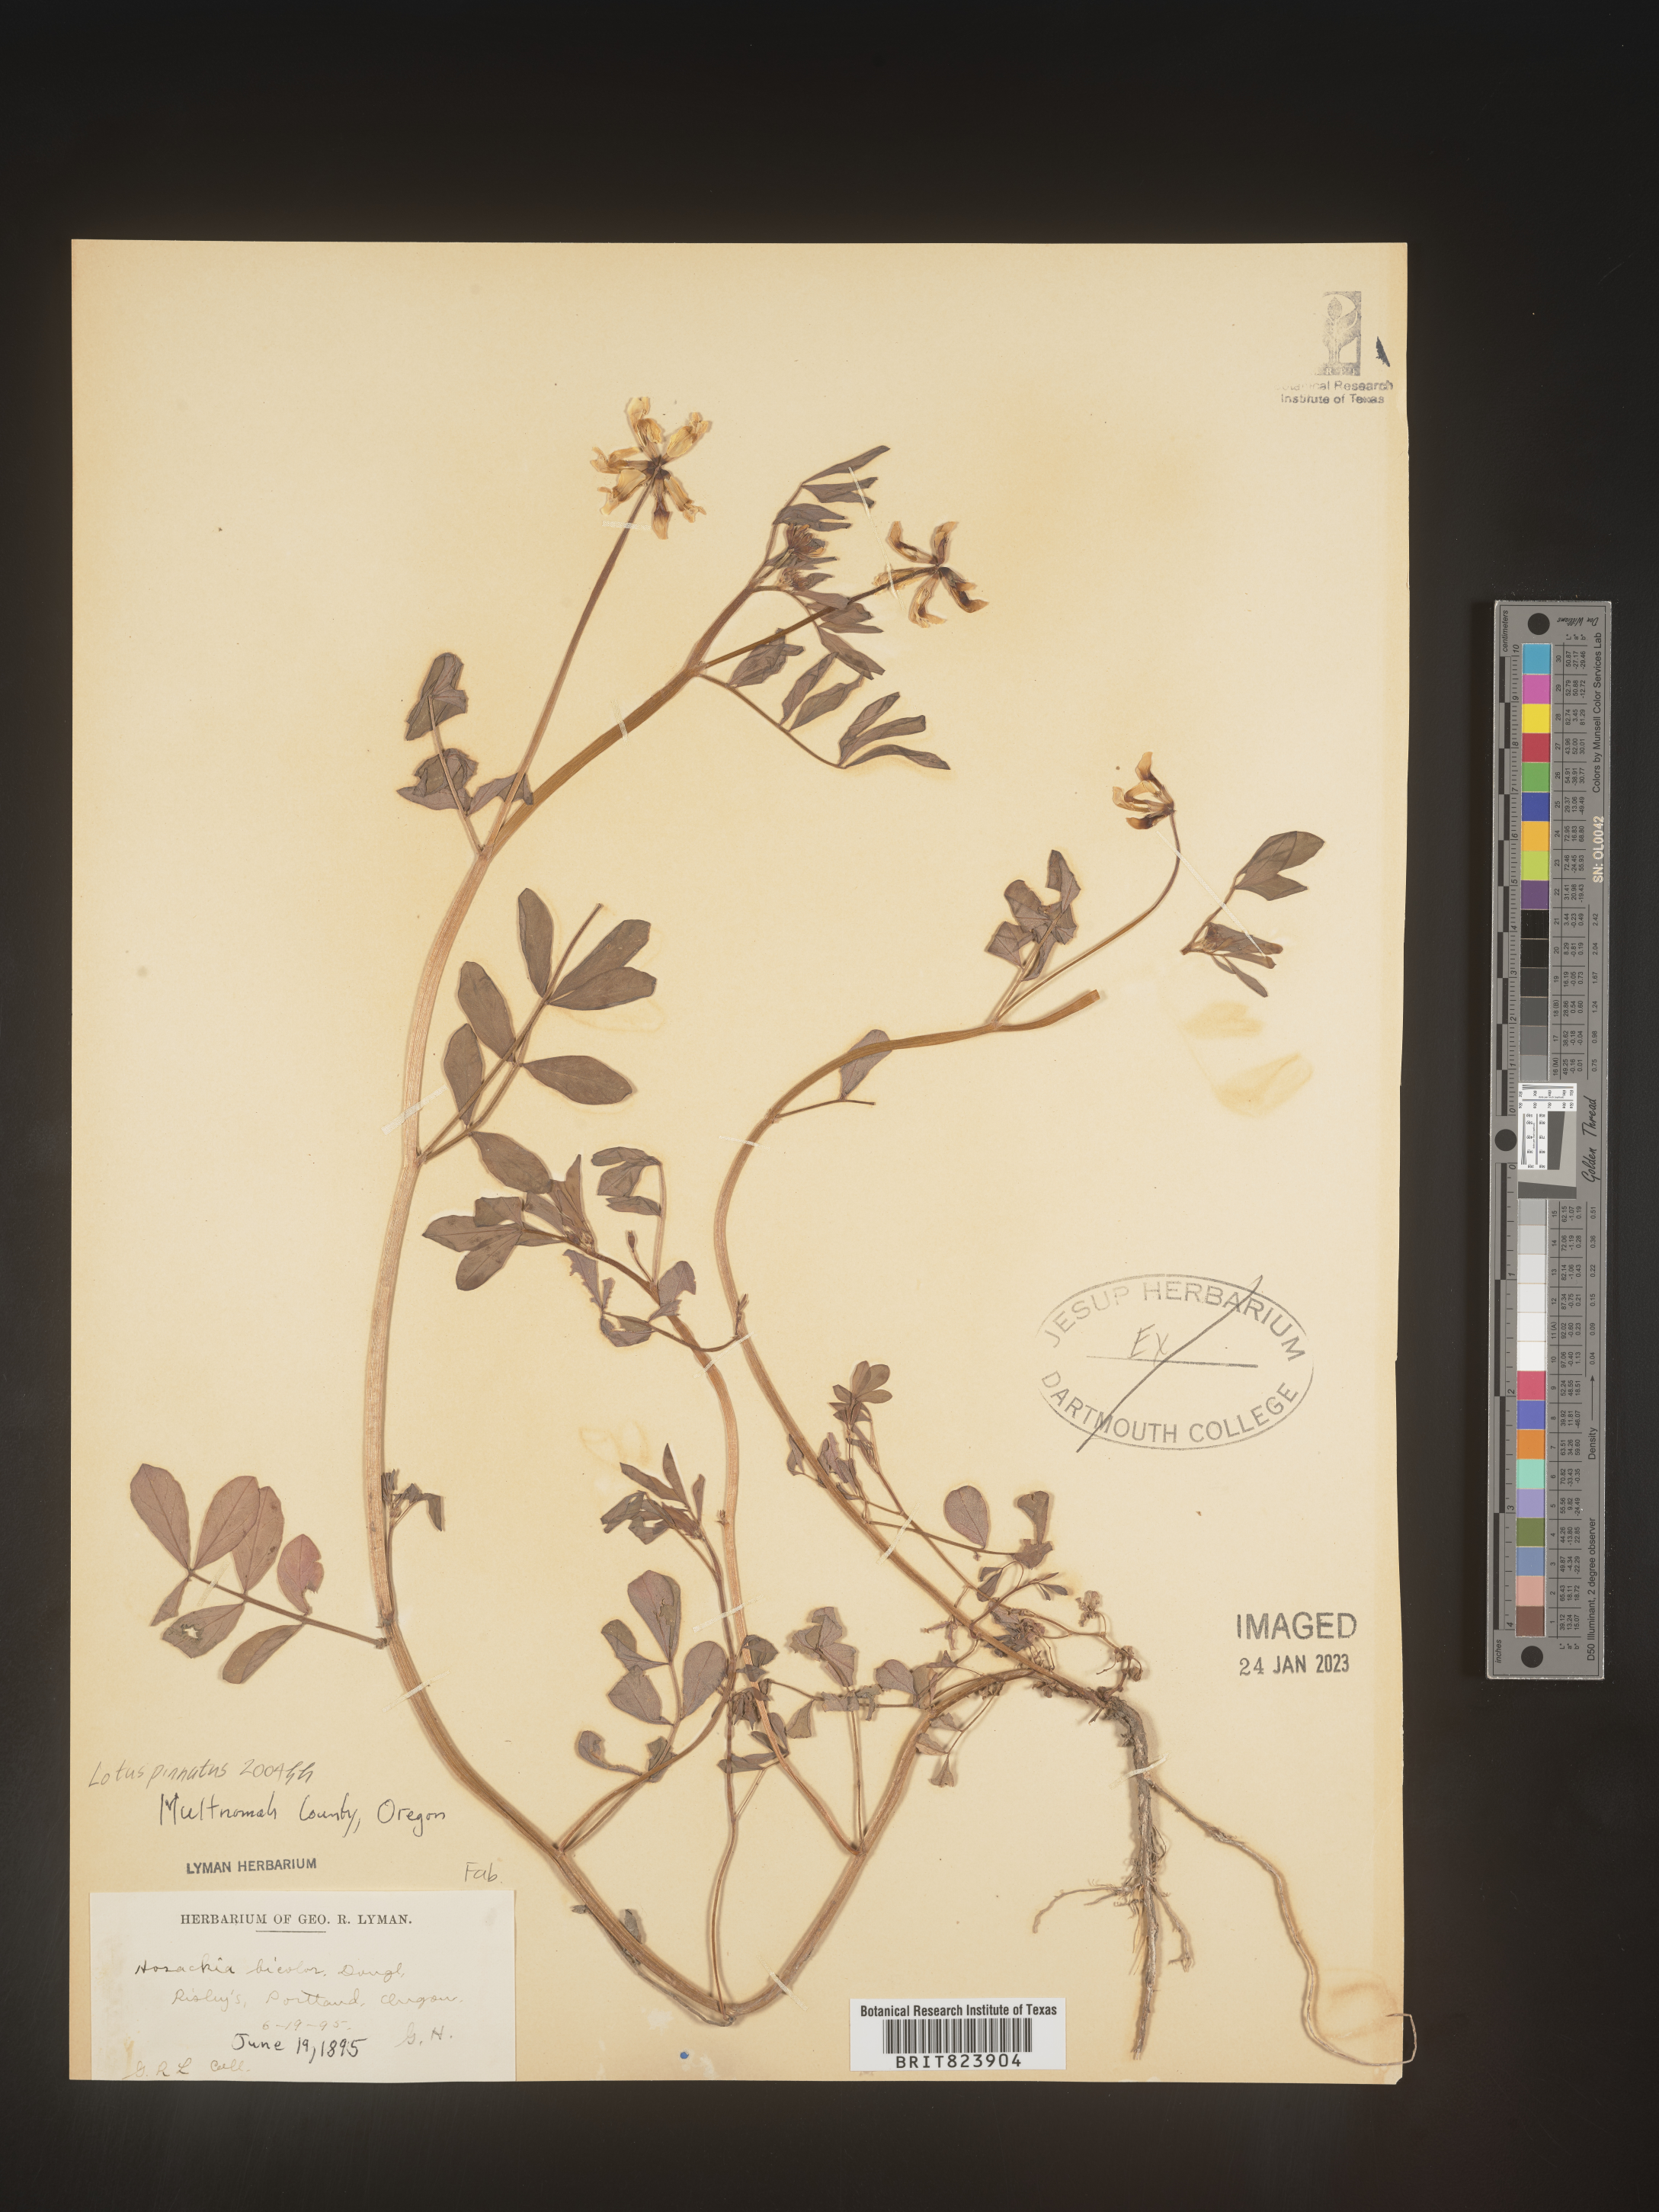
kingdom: Plantae
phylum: Tracheophyta
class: Magnoliopsida
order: Fabales
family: Fabaceae
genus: Lotus
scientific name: Lotus
